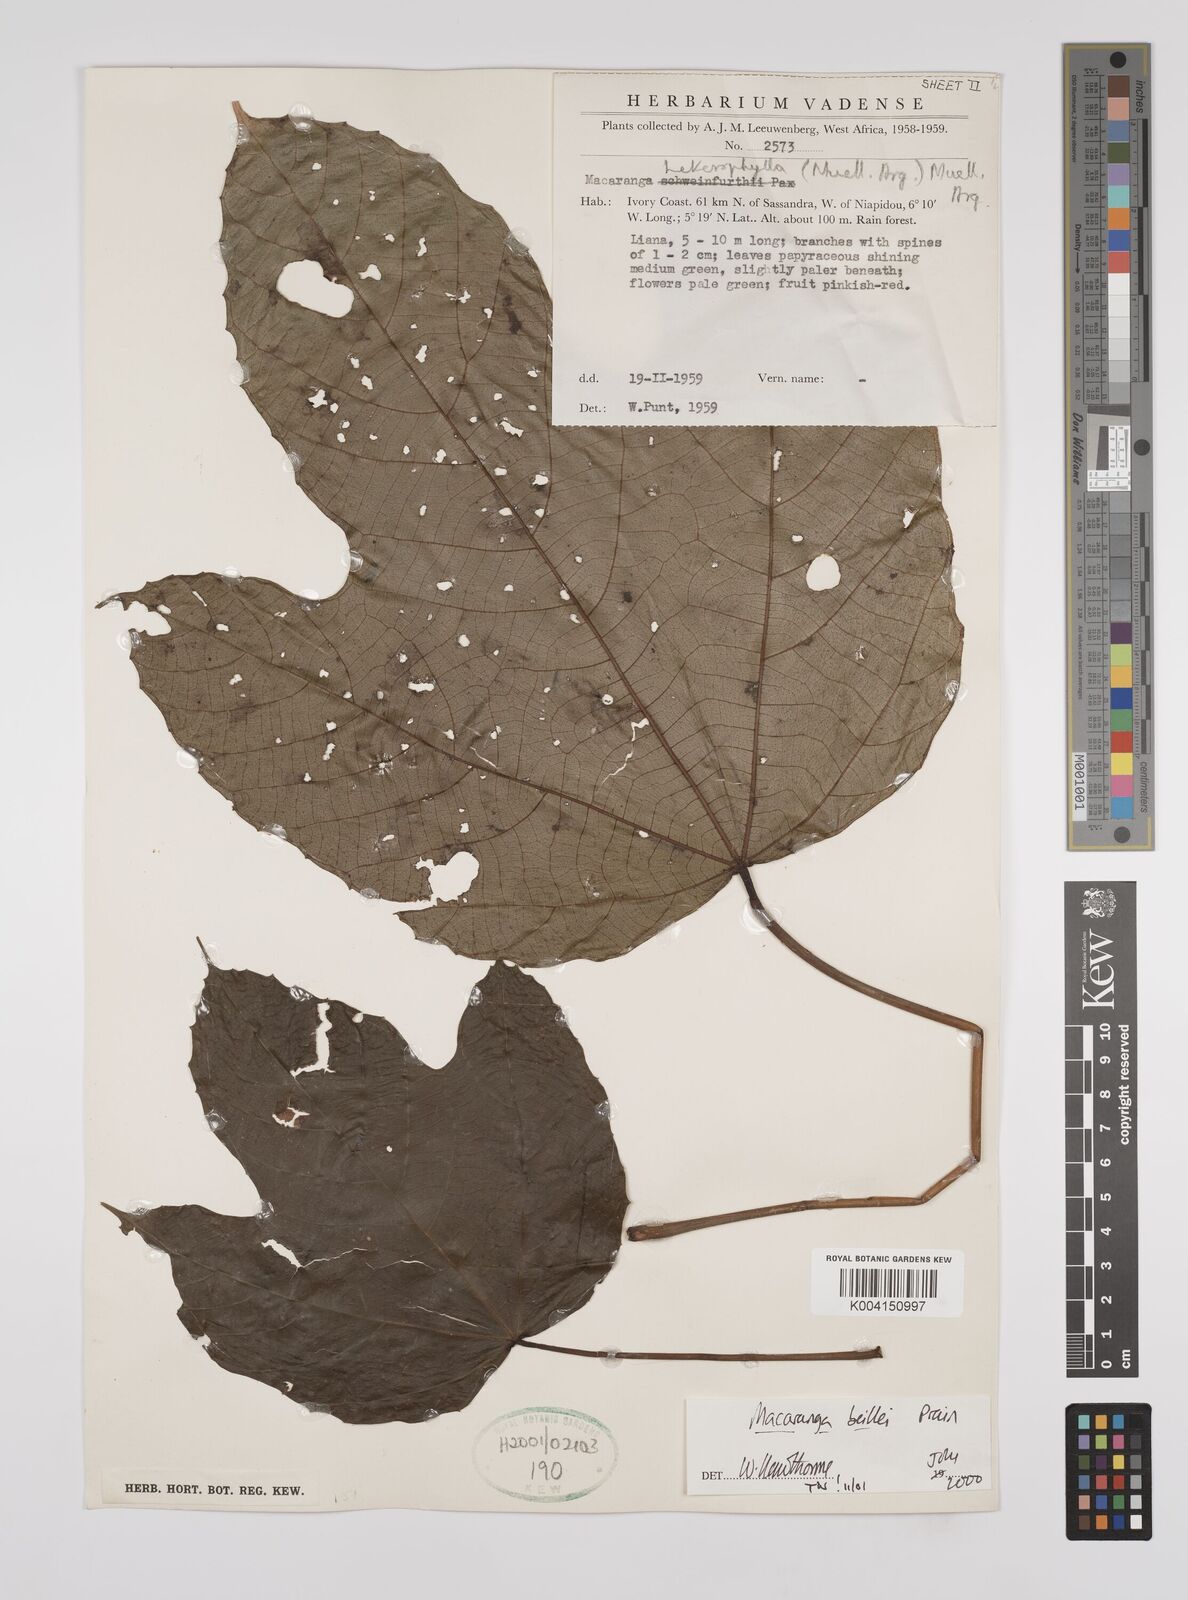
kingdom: Plantae
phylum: Tracheophyta
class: Magnoliopsida
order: Malpighiales
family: Euphorbiaceae
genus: Macaranga
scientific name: Macaranga beillei
